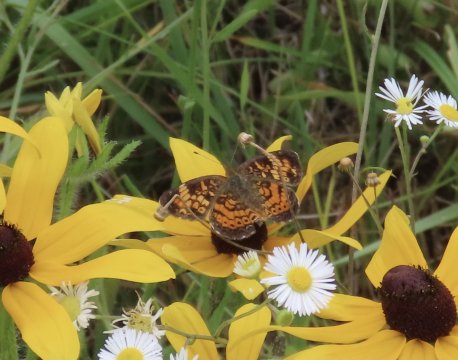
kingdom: Animalia
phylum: Arthropoda
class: Insecta
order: Lepidoptera
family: Nymphalidae
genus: Phyciodes
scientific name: Phyciodes tharos
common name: Pearl Crescent
